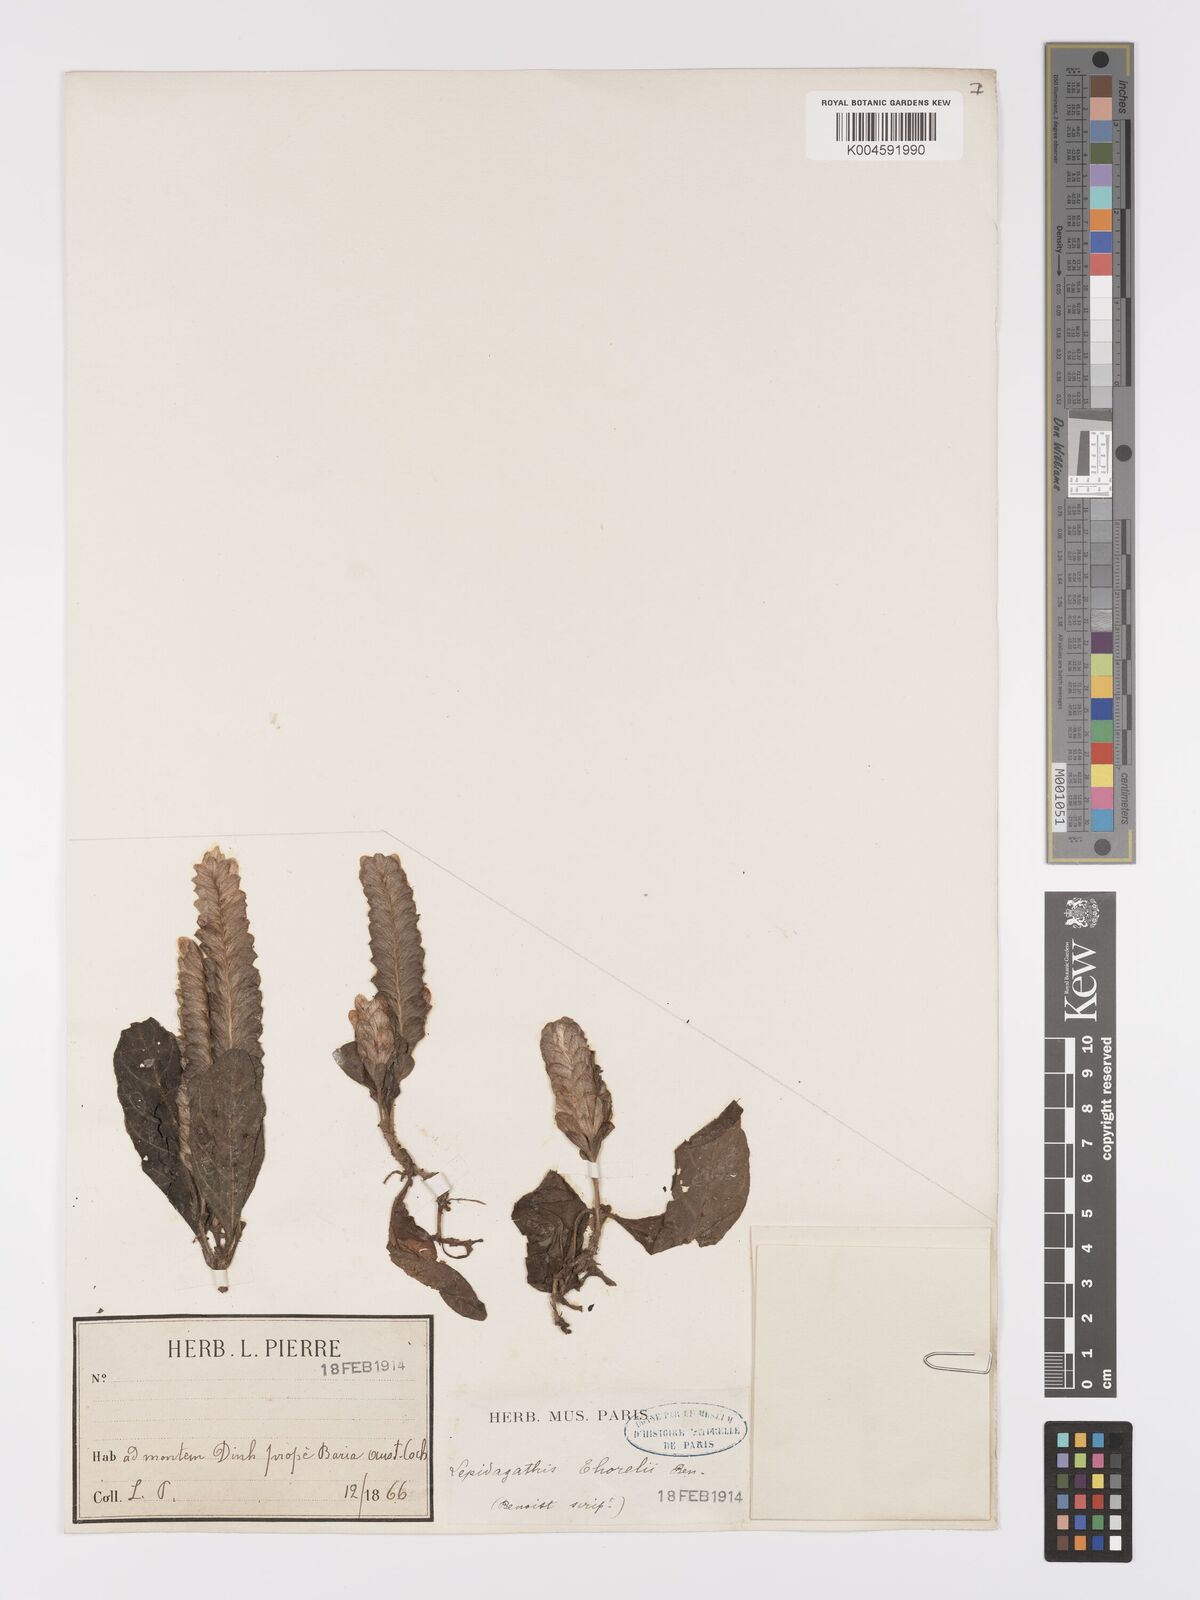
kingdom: Plantae
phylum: Tracheophyta
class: Magnoliopsida
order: Lamiales
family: Acanthaceae
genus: Lepidagathis
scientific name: Lepidagathis thorelii
